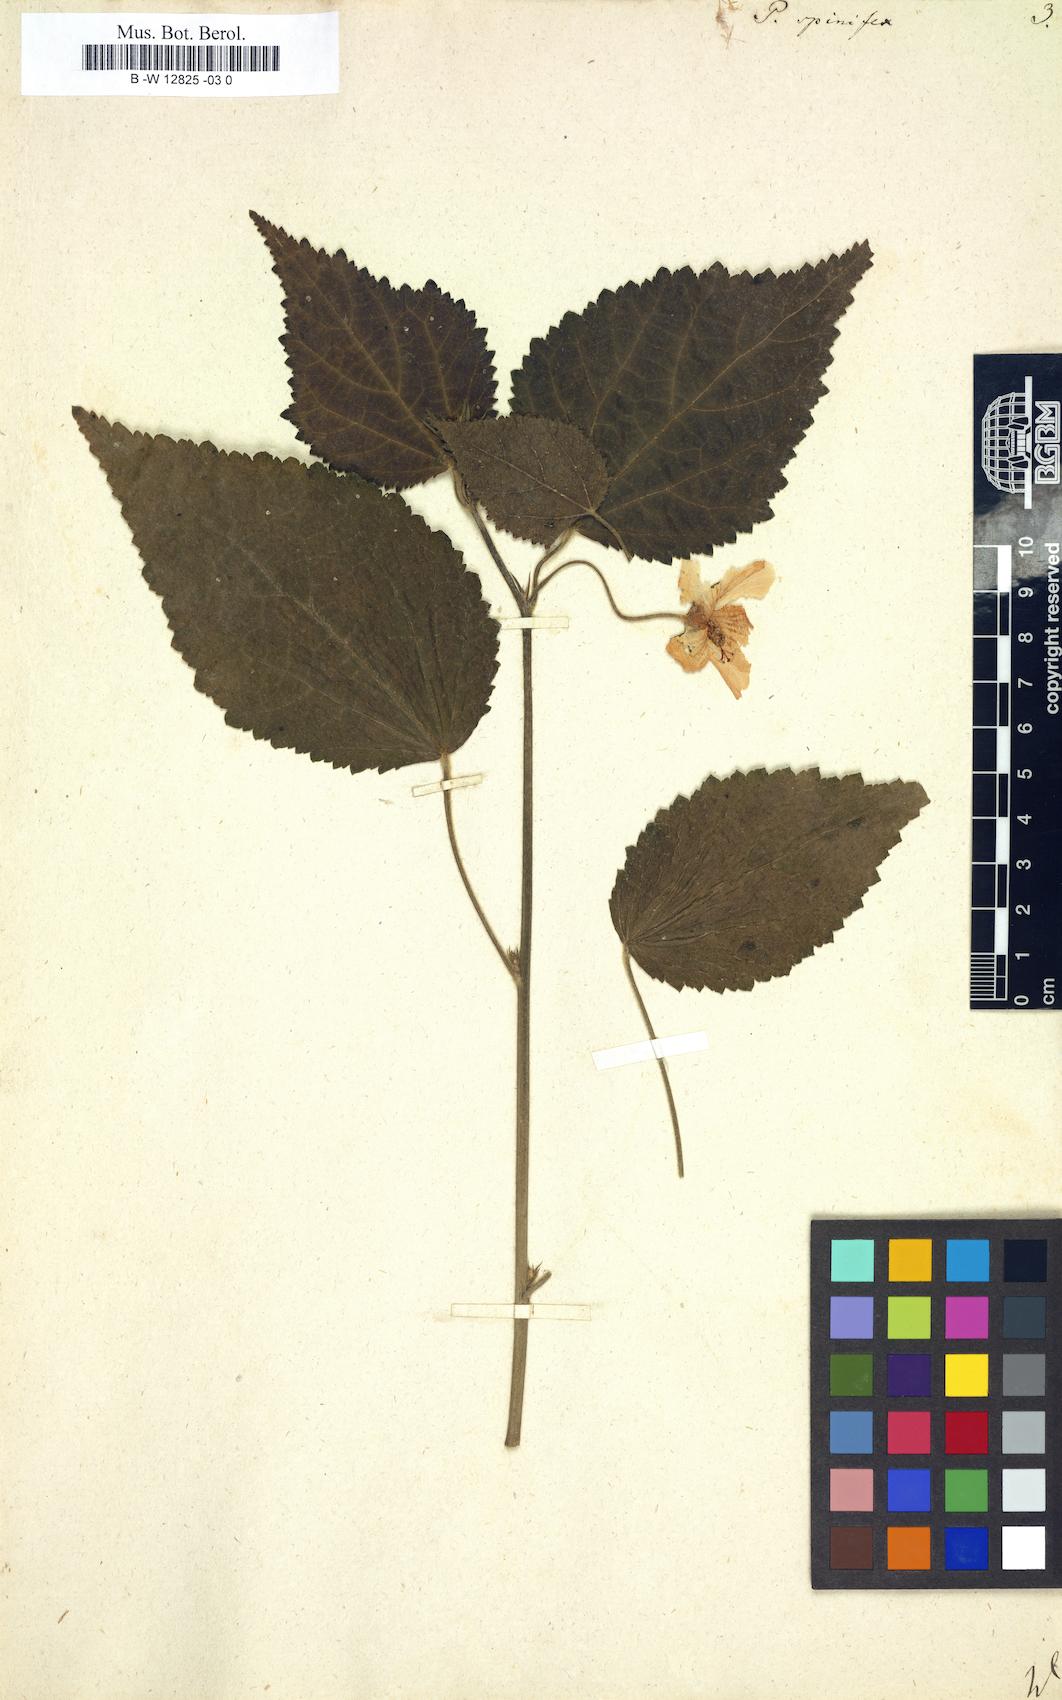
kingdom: Plantae
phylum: Tracheophyta
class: Magnoliopsida
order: Malvales
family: Malvaceae
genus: Pavonia
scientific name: Pavonia spinifex
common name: Ginger bush
